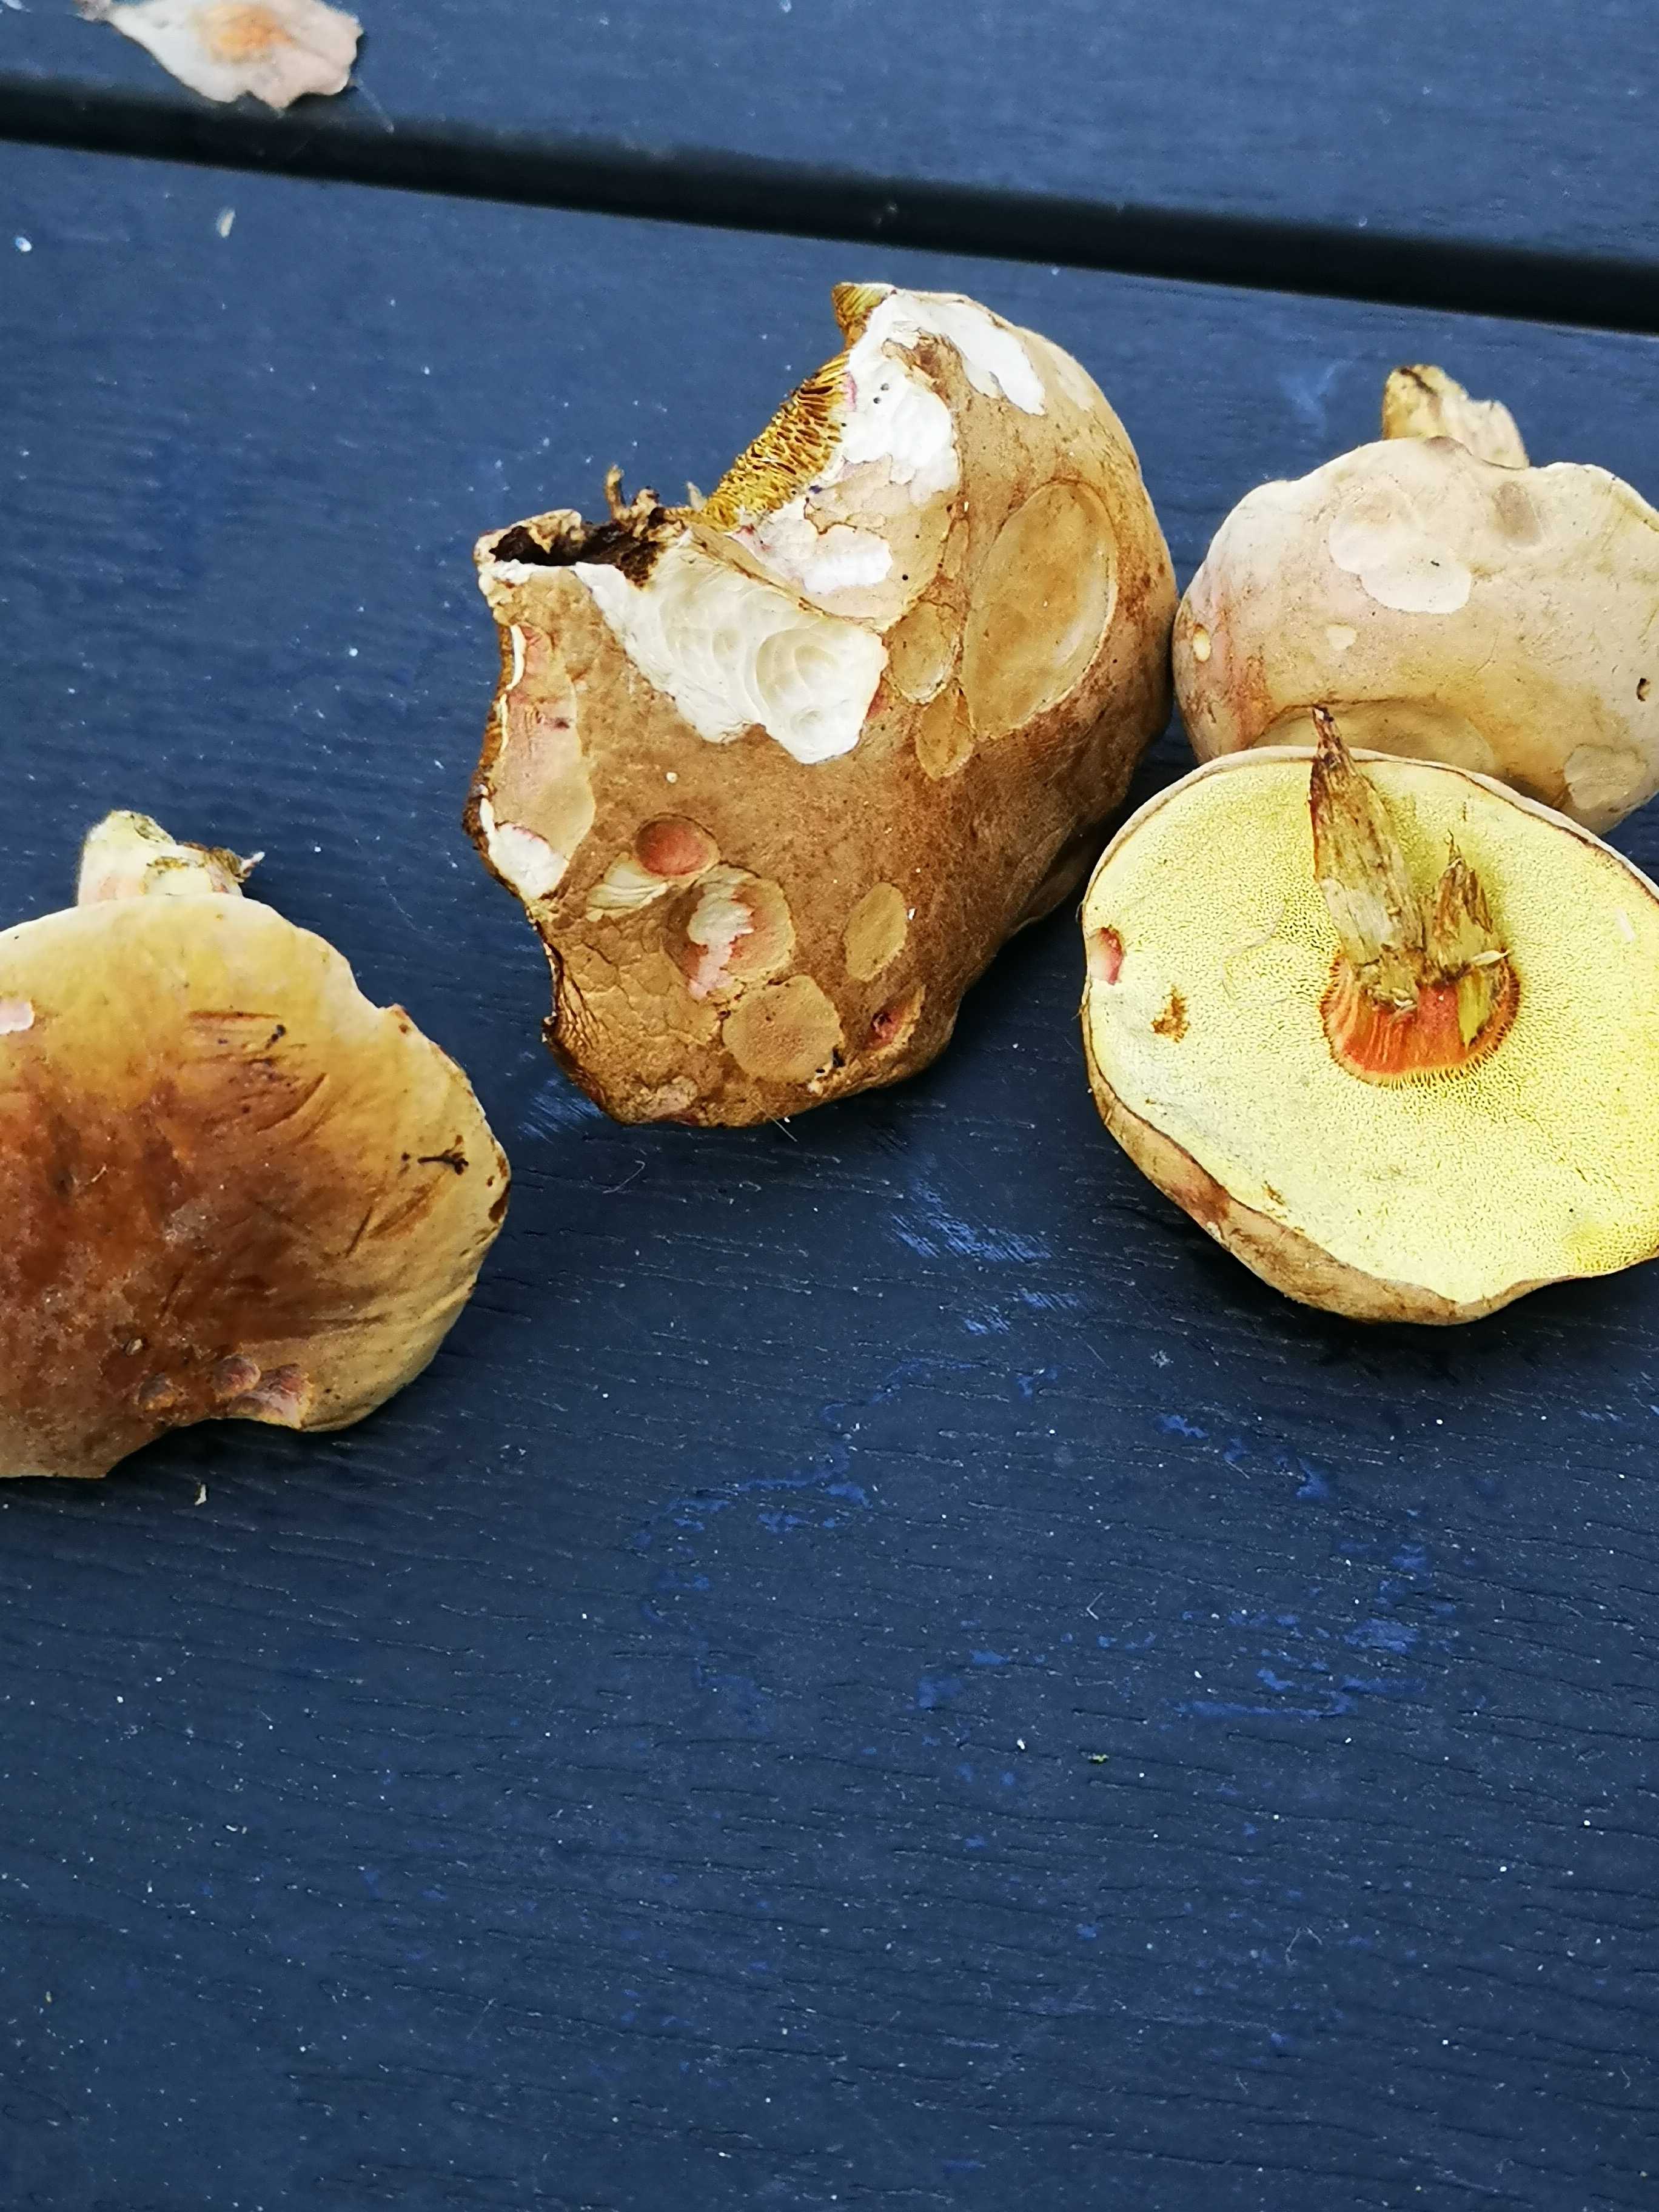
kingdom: Fungi
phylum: Basidiomycota
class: Agaricomycetes
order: Boletales
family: Boletaceae
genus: Hortiboletus
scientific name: Hortiboletus bubalinus
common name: aurora-rørhat
